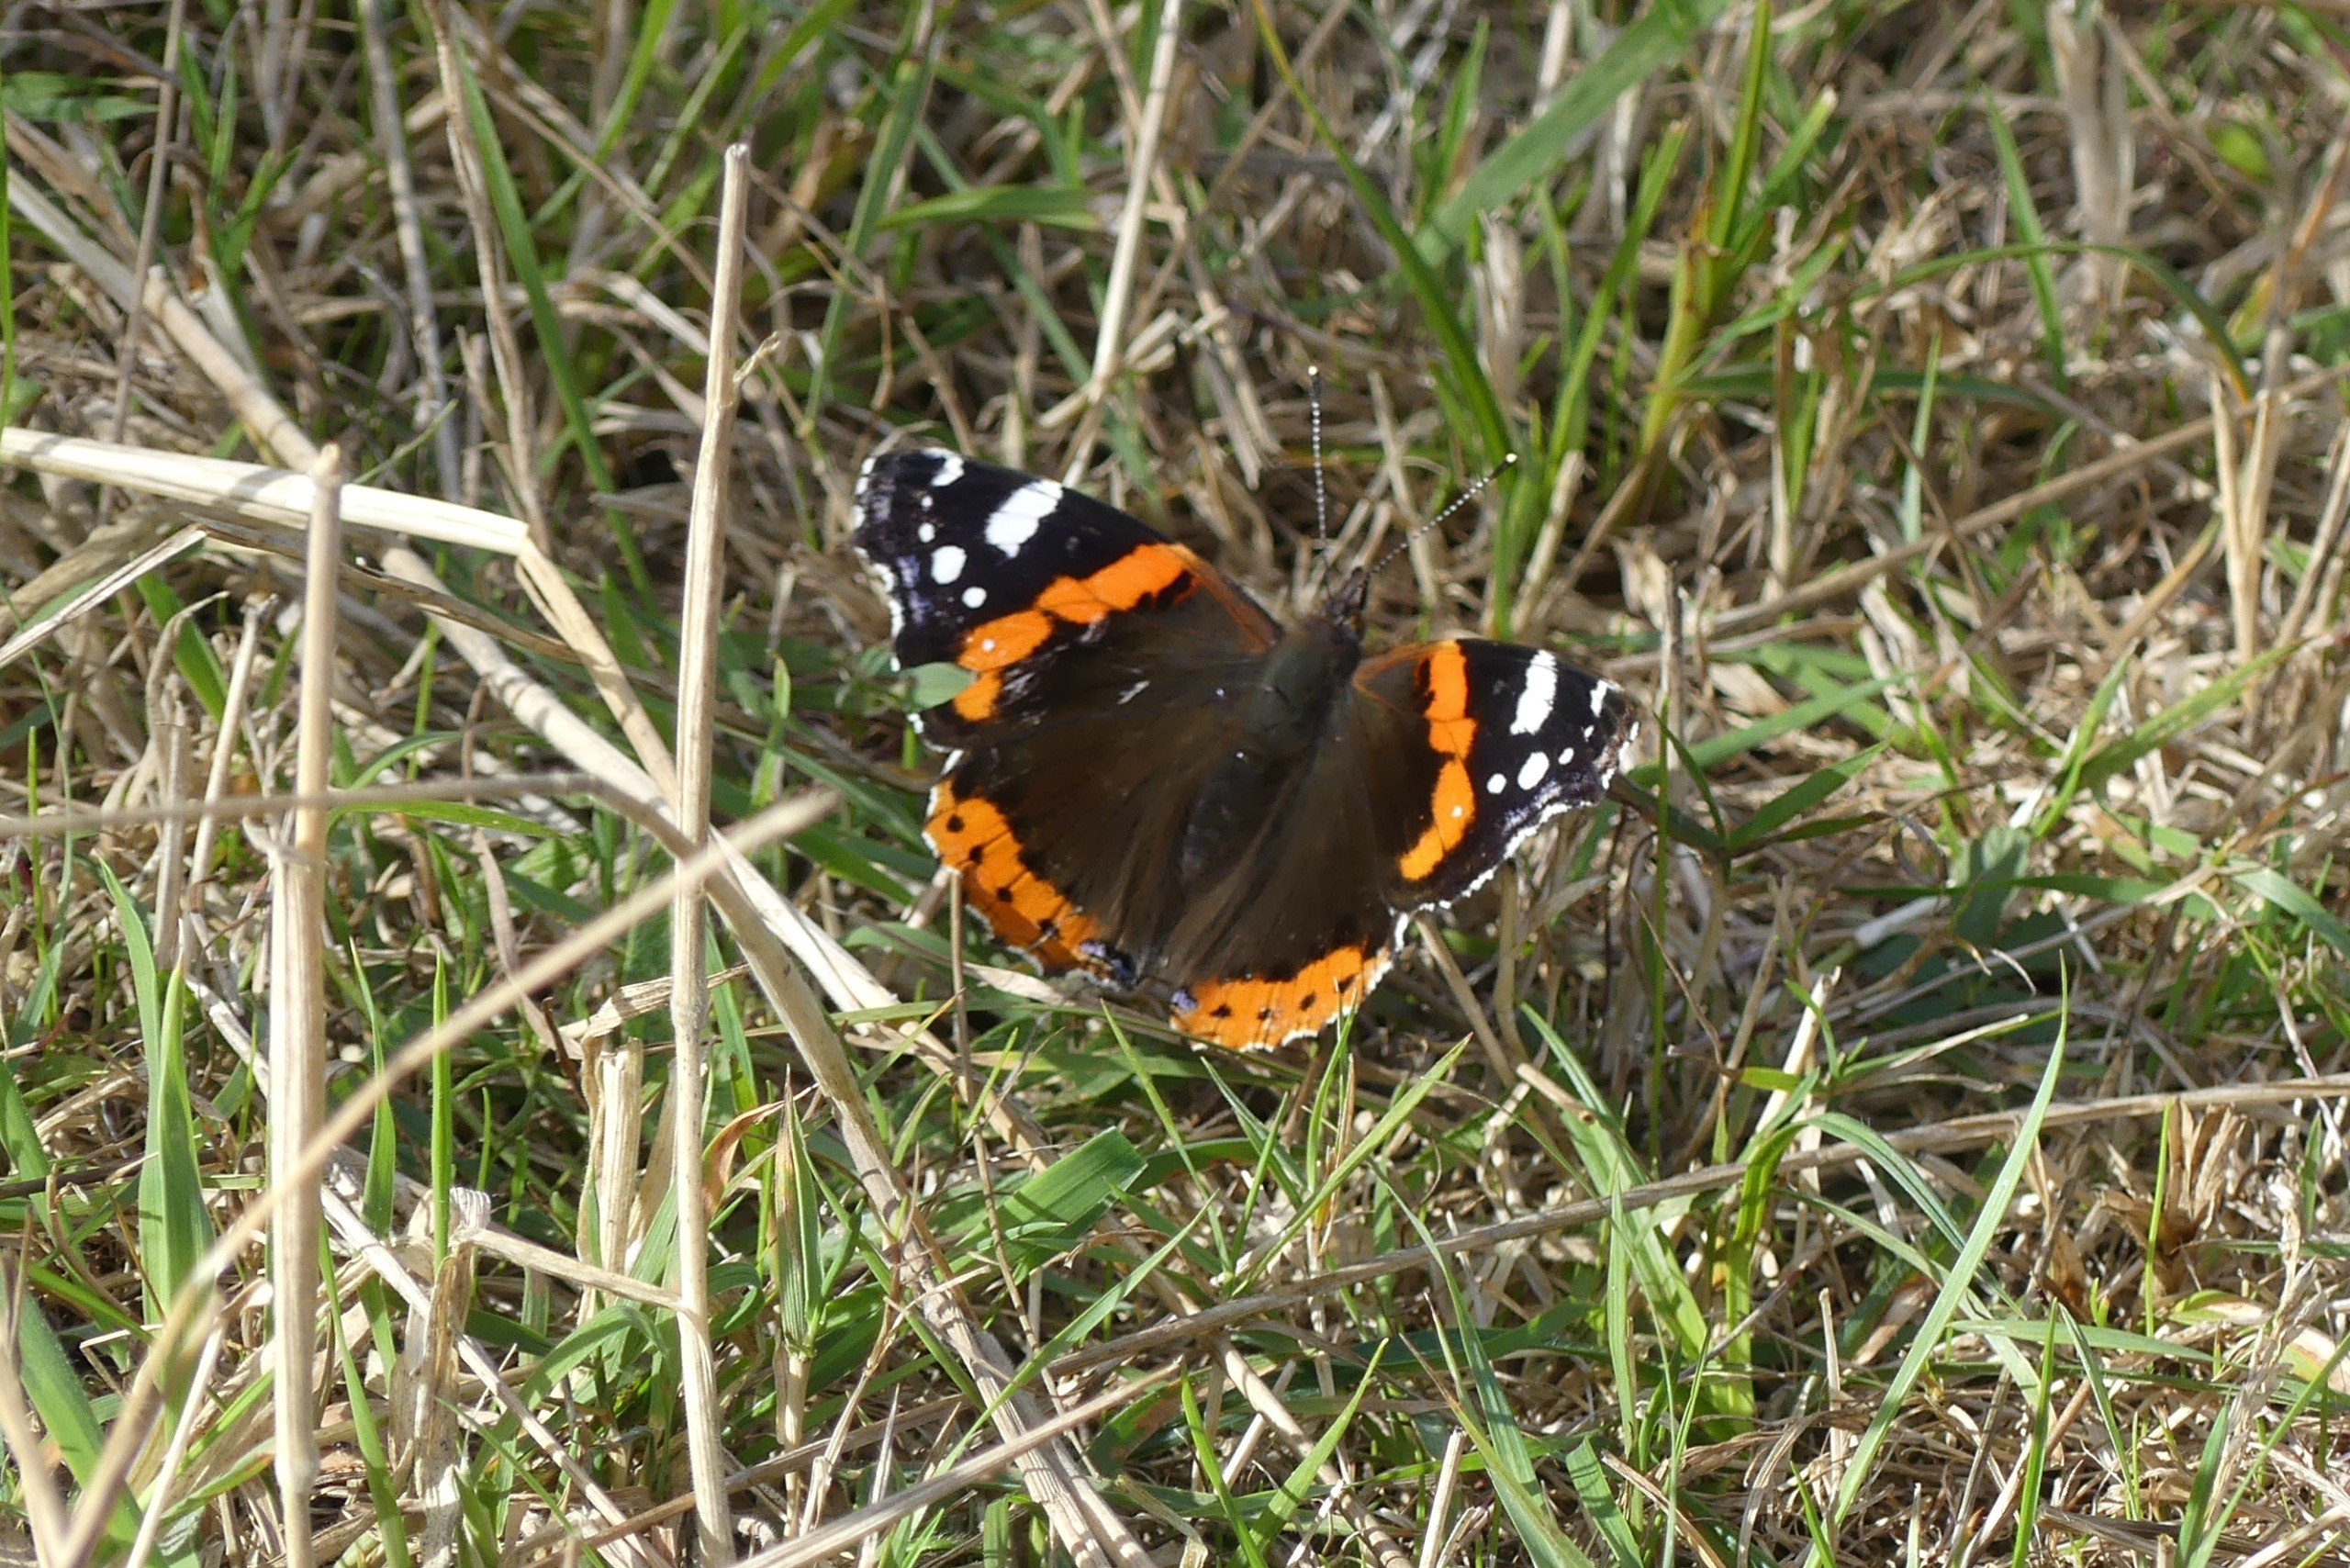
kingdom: Animalia
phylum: Arthropoda
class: Insecta
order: Lepidoptera
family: Nymphalidae
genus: Vanessa
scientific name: Vanessa atalanta
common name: Admiral
